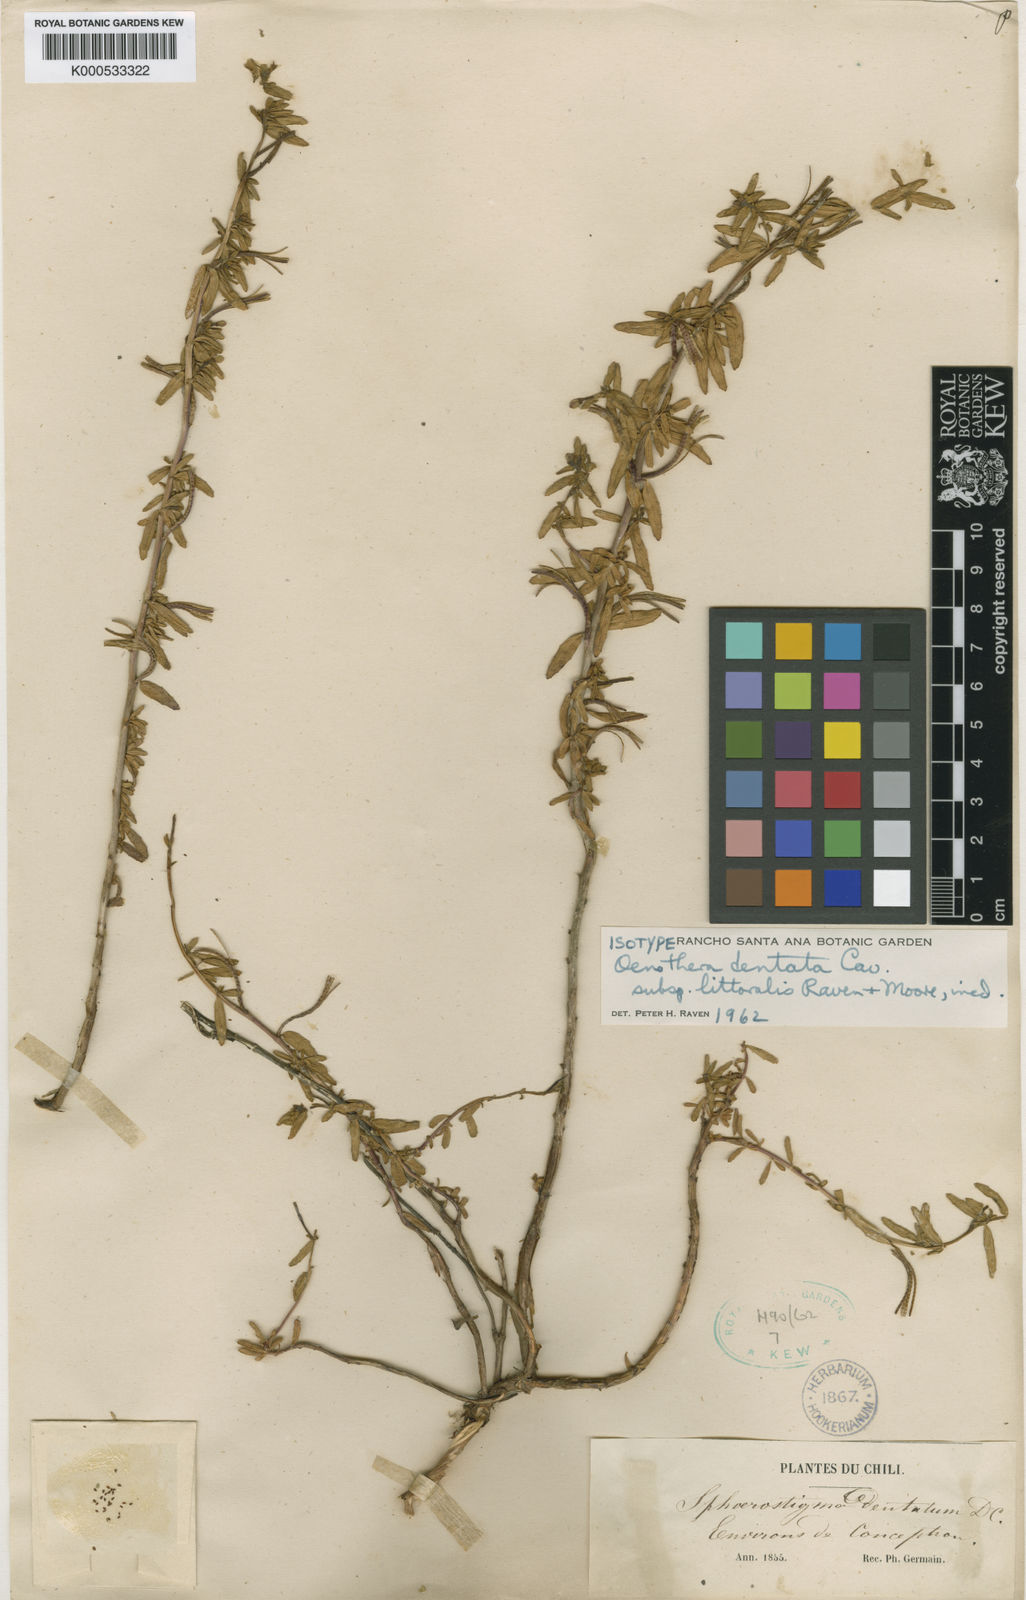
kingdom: Plantae
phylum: Tracheophyta
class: Magnoliopsida
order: Myrtales
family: Onagraceae
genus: Camissonia
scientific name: Camissonia dentata
